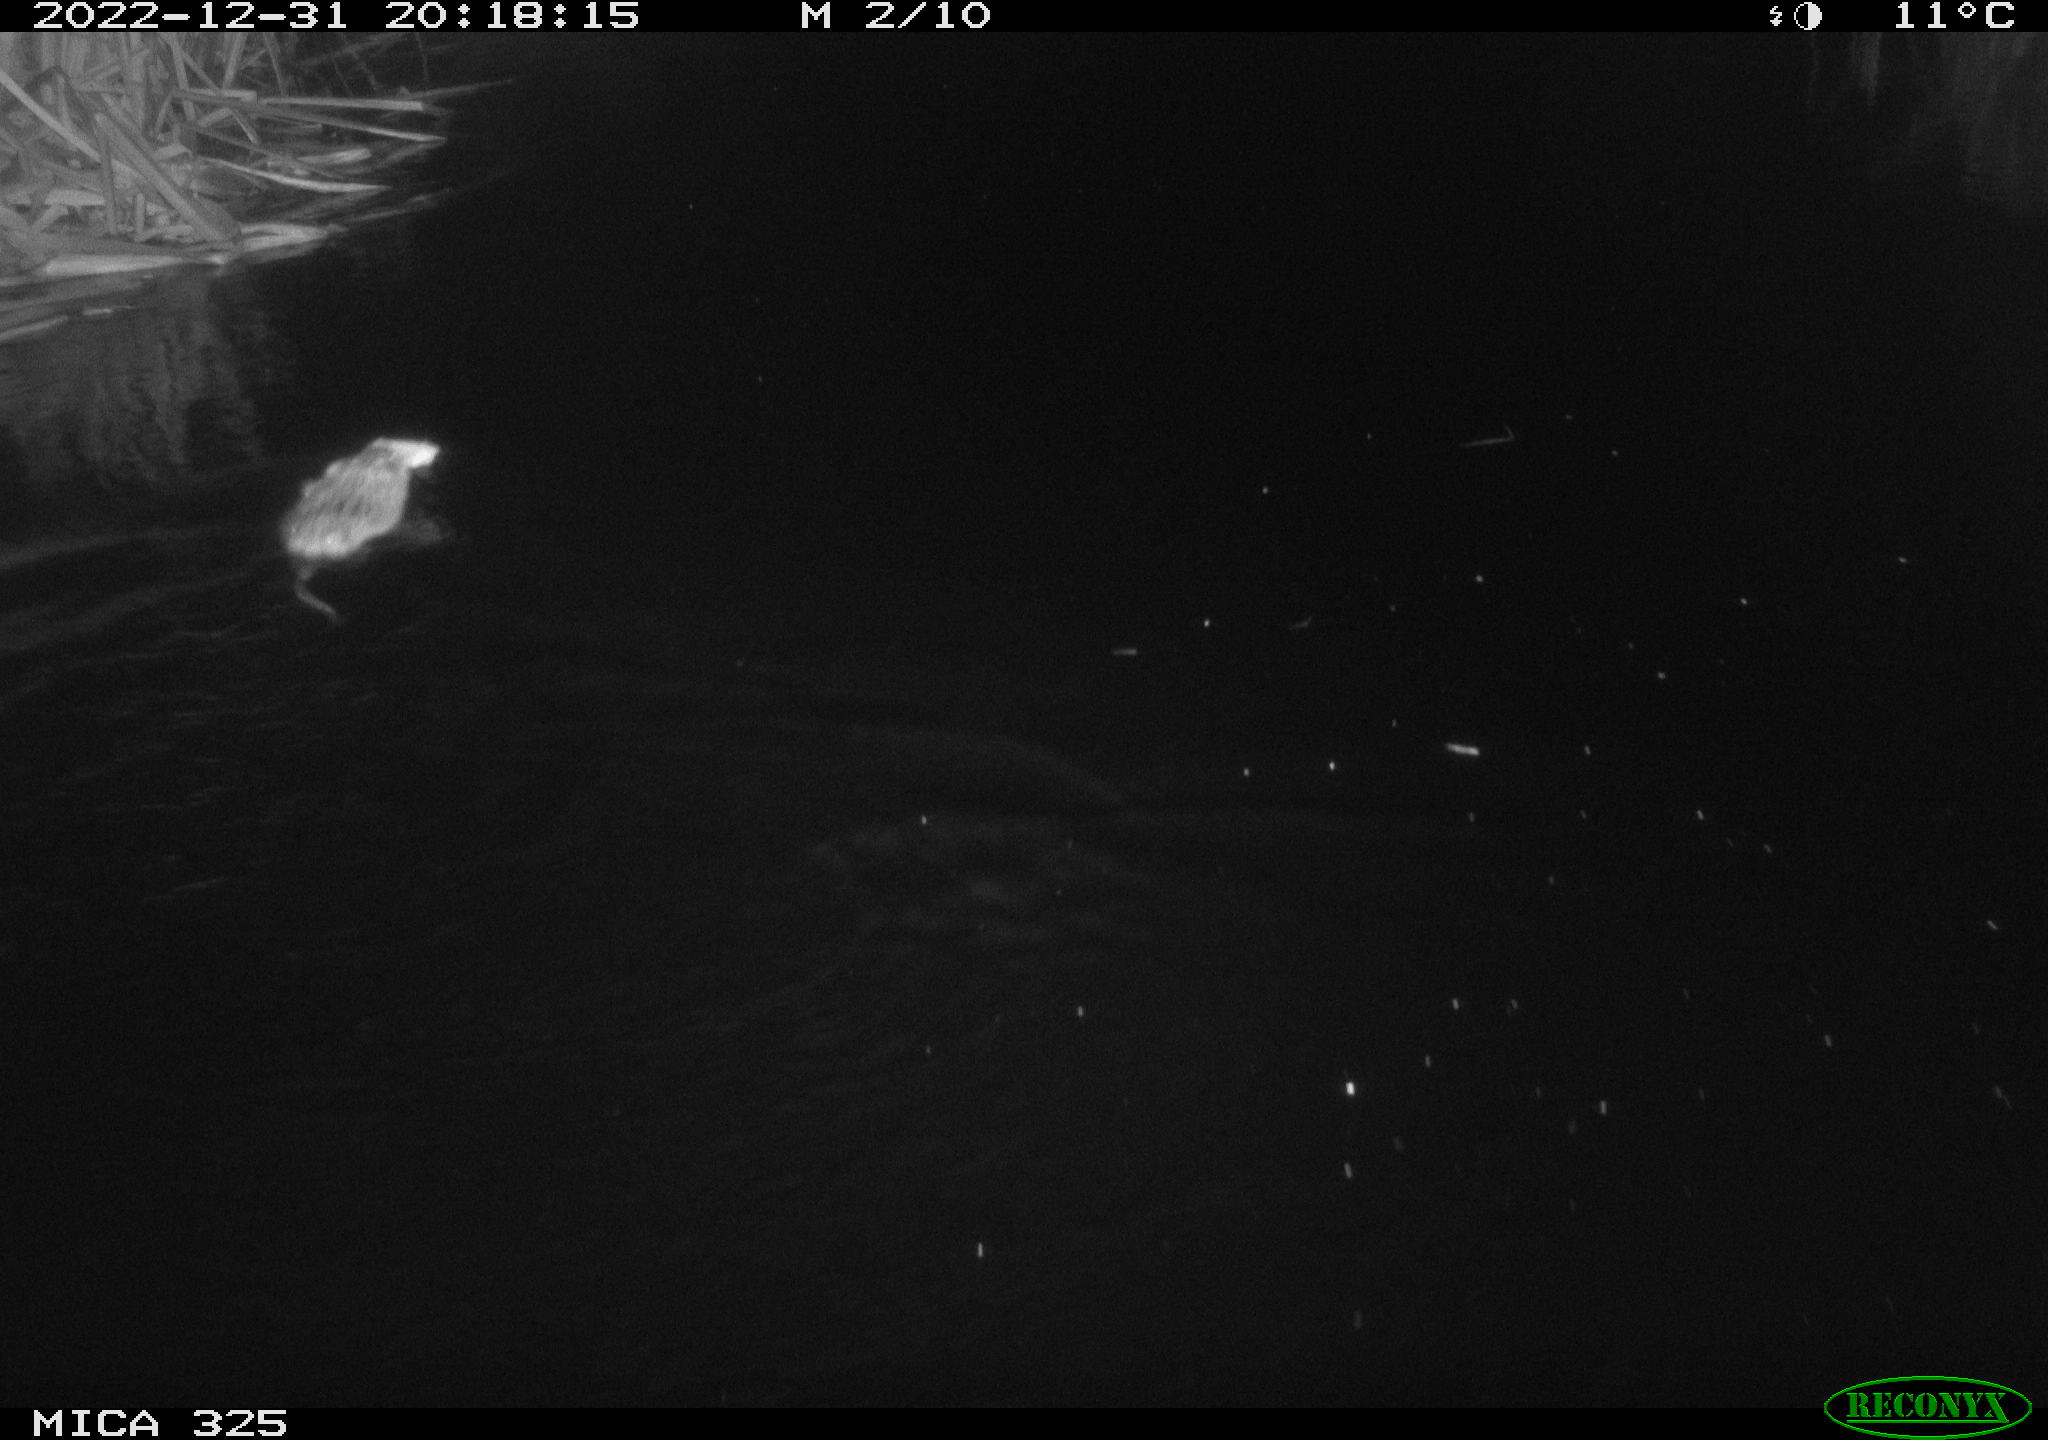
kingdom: Animalia
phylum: Chordata
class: Mammalia
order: Rodentia
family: Cricetidae
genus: Ondatra
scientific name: Ondatra zibethicus
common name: Muskrat
